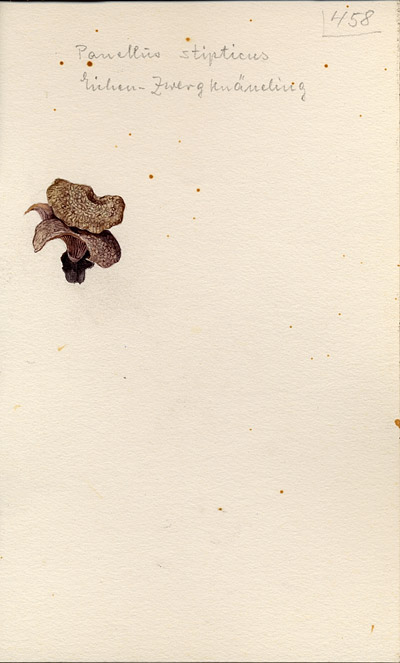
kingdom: Fungi
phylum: Basidiomycota
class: Agaricomycetes
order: Agaricales
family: Mycenaceae
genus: Panellus
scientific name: Panellus stipticus
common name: Bitter oysterling
